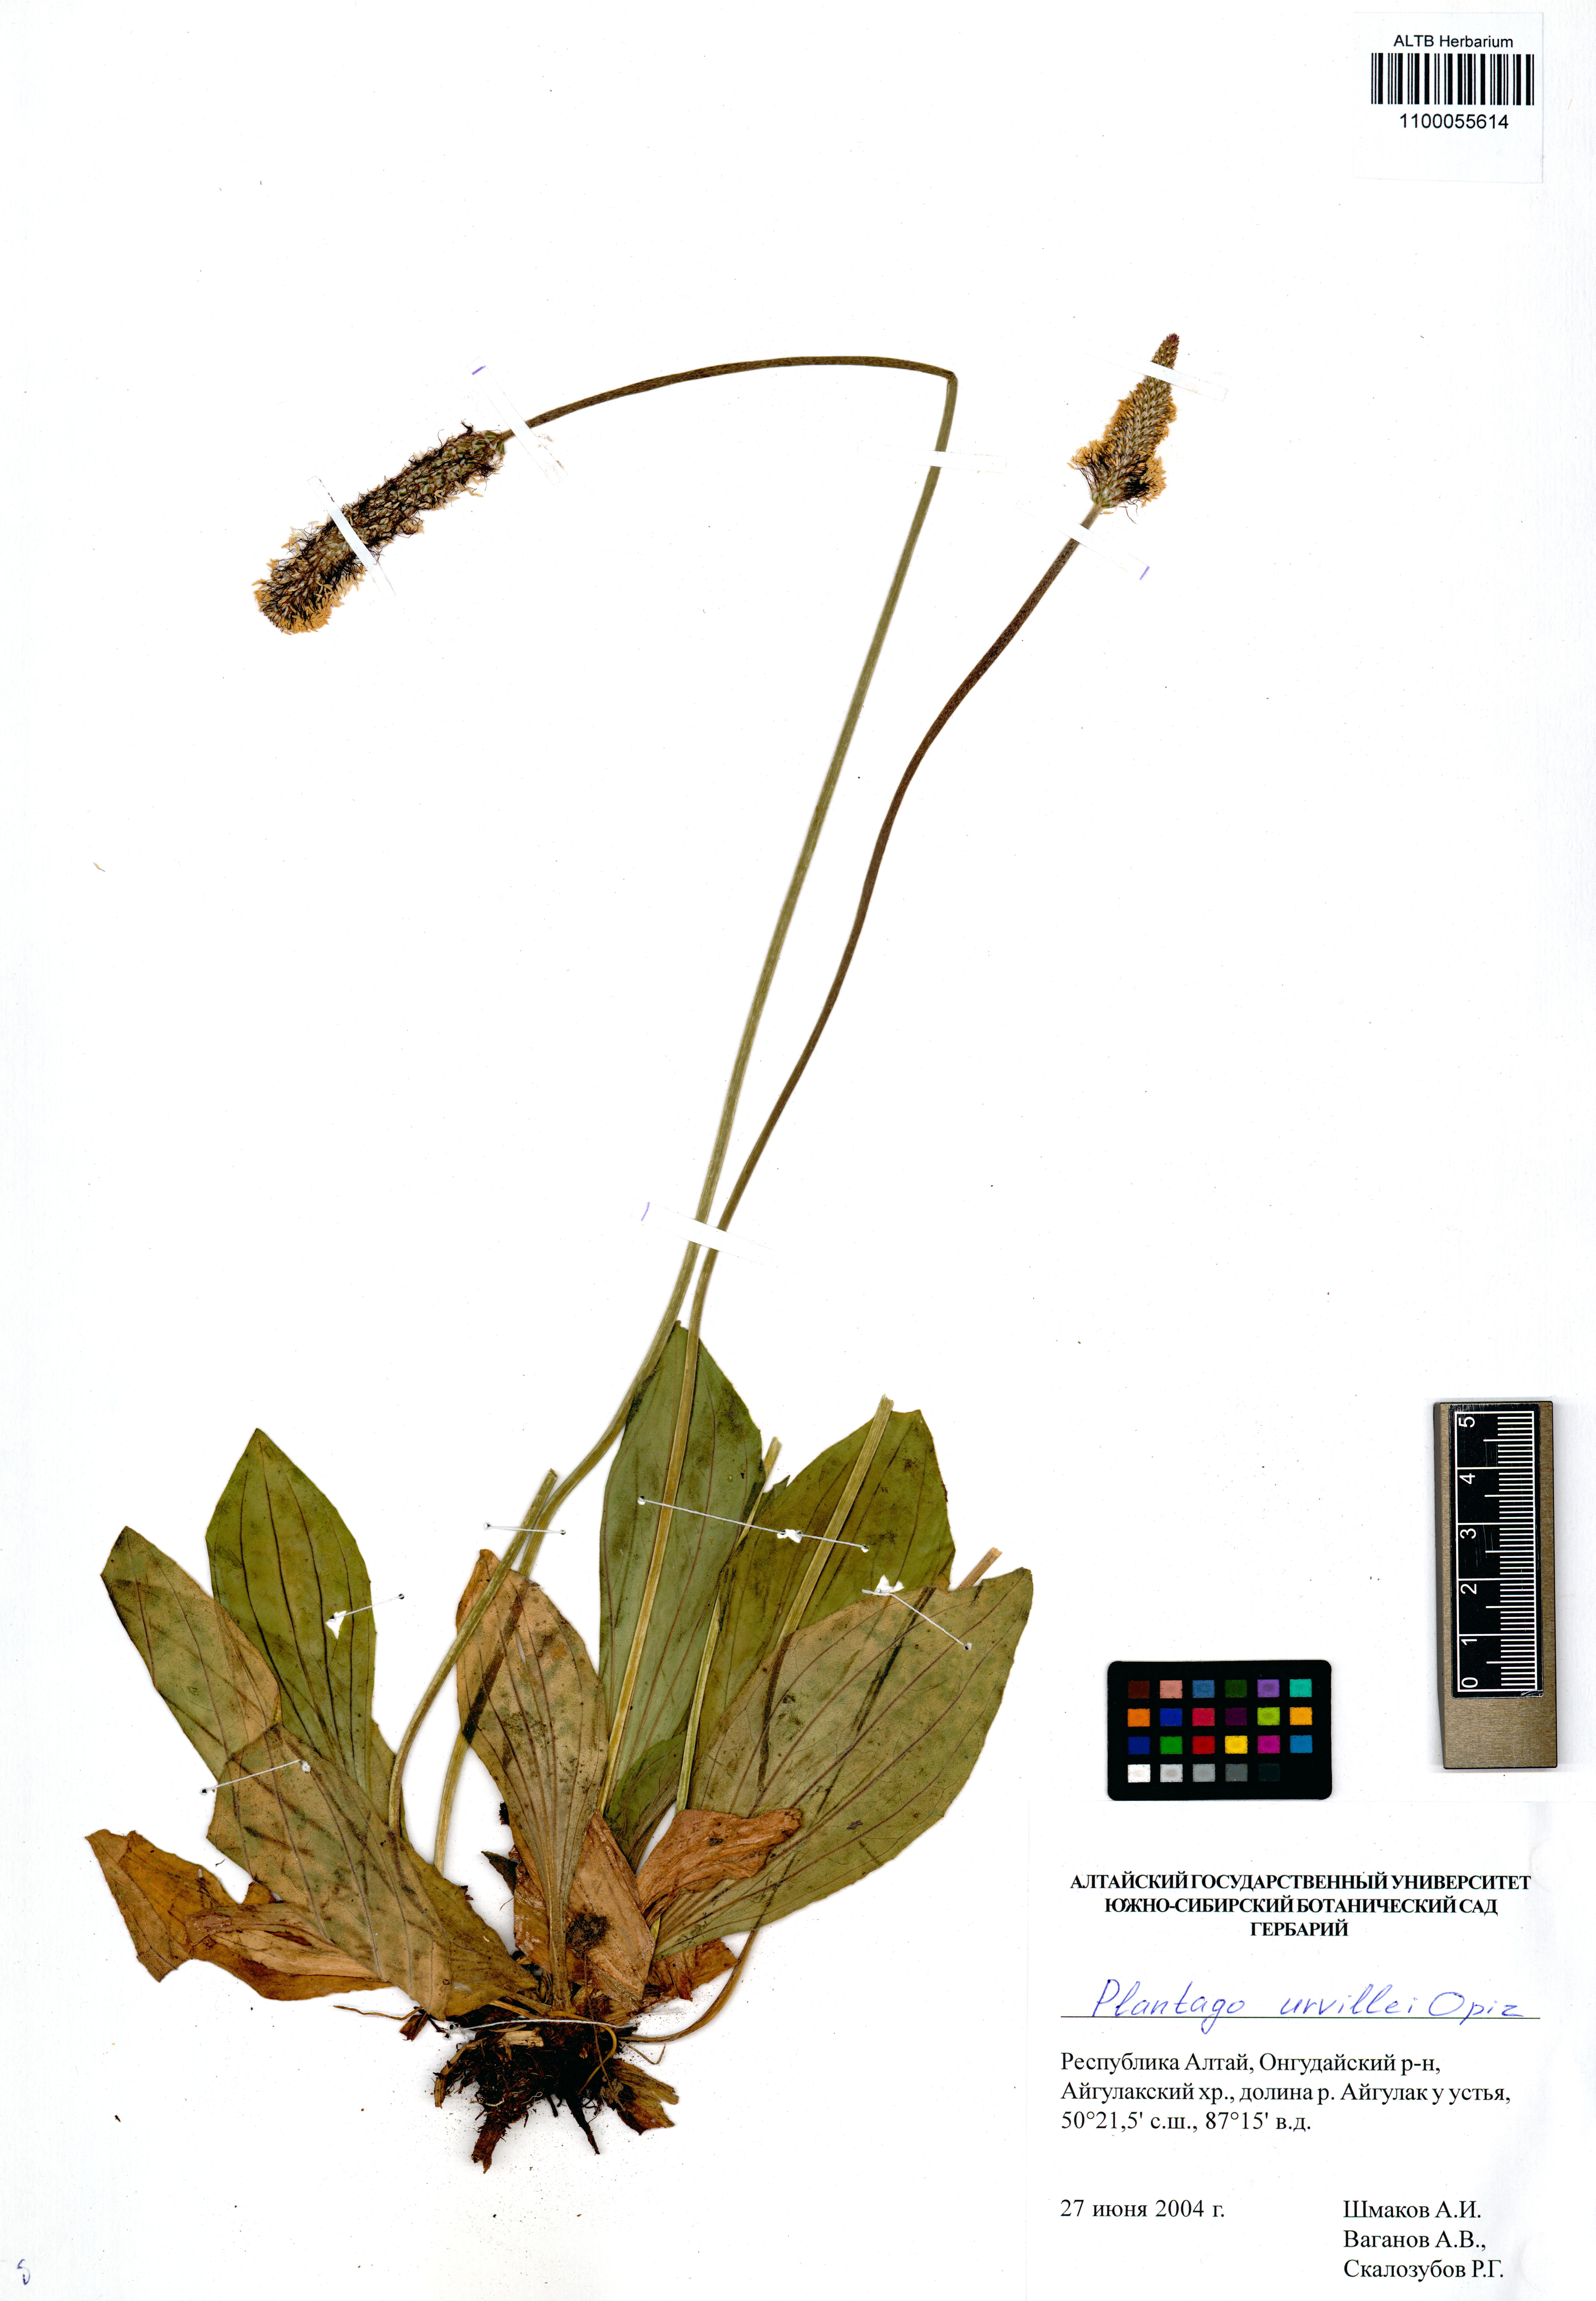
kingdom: Plantae
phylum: Tracheophyta
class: Magnoliopsida
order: Lamiales
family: Plantaginaceae
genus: Plantago
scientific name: Plantago urvillei
